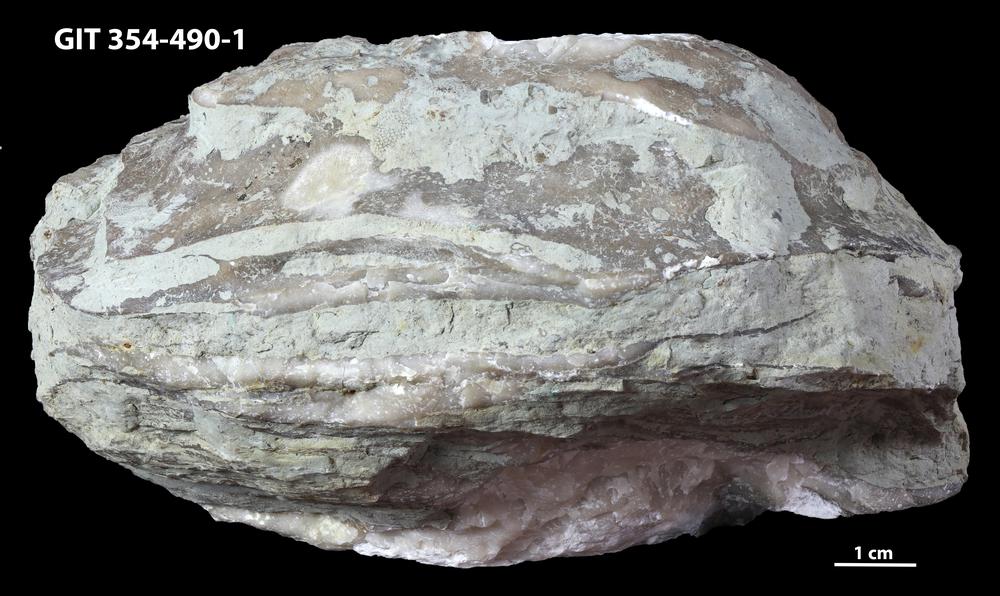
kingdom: Animalia
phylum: Cnidaria
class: Anthozoa
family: Kodonophyllidae
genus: Schlotheimophyllum
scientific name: Schlotheimophyllum
